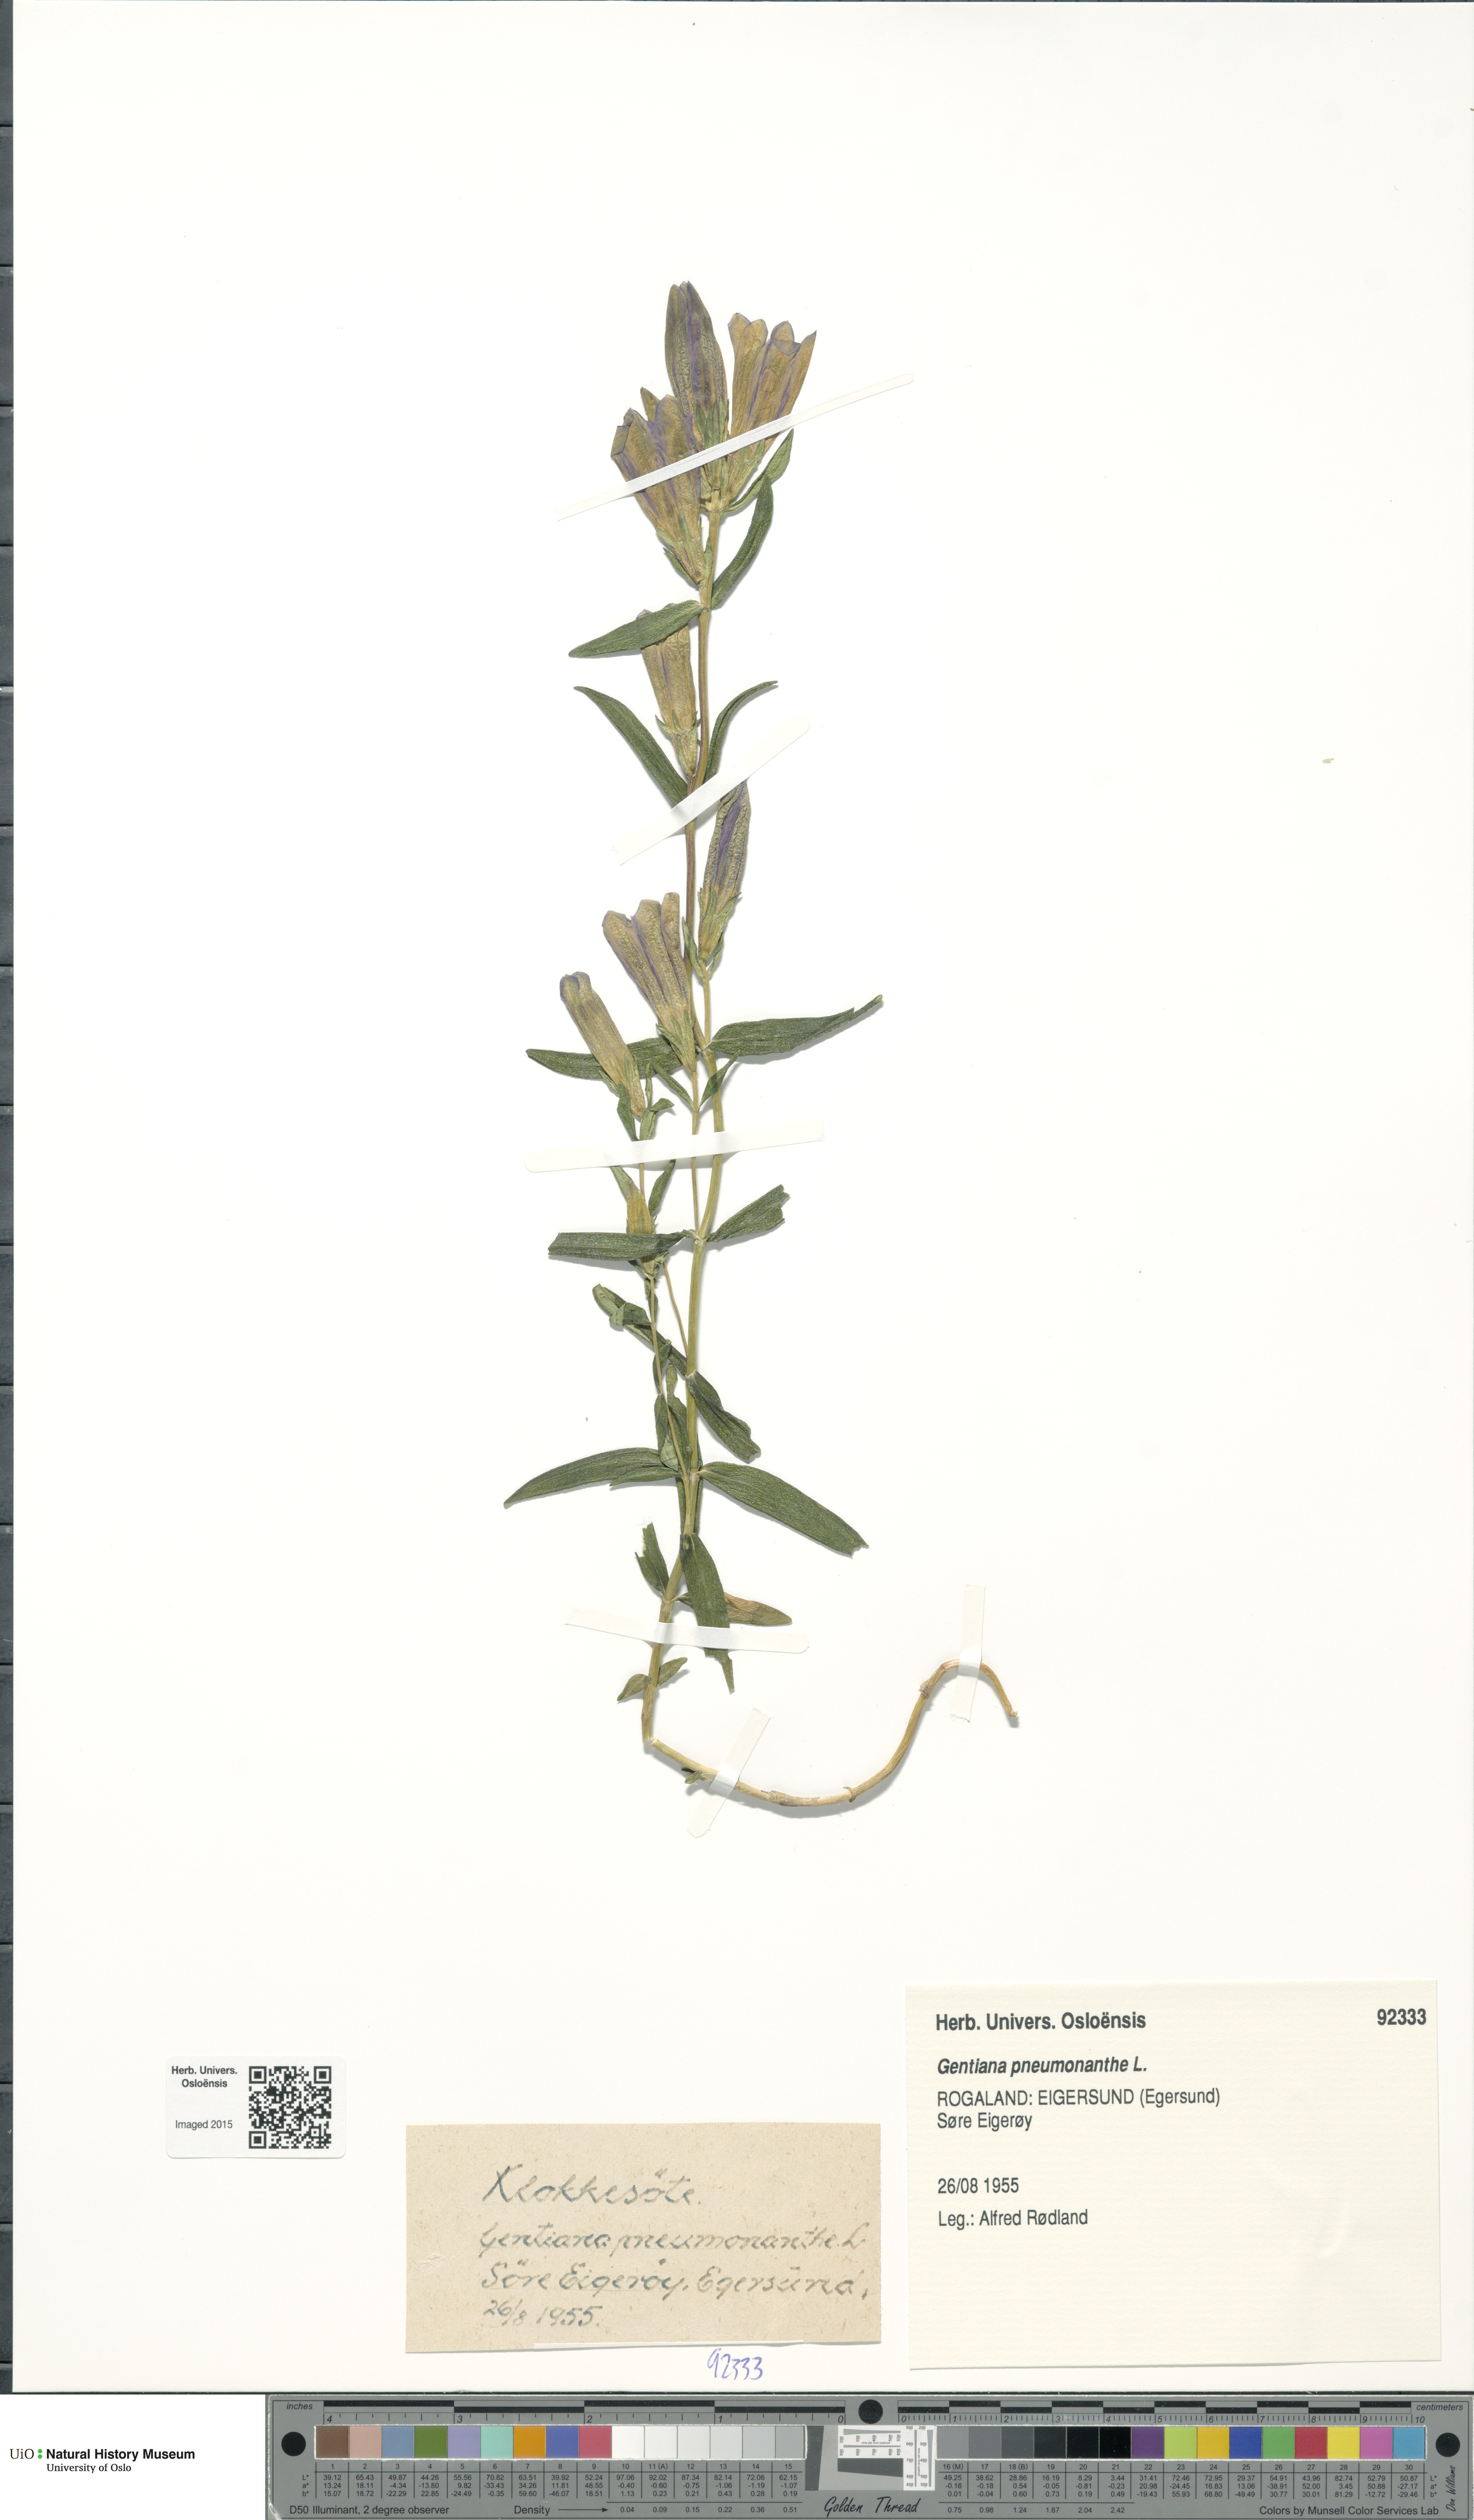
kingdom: Plantae
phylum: Tracheophyta
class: Magnoliopsida
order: Gentianales
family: Gentianaceae
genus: Gentiana
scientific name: Gentiana pneumonanthe
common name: Marsh gentian
